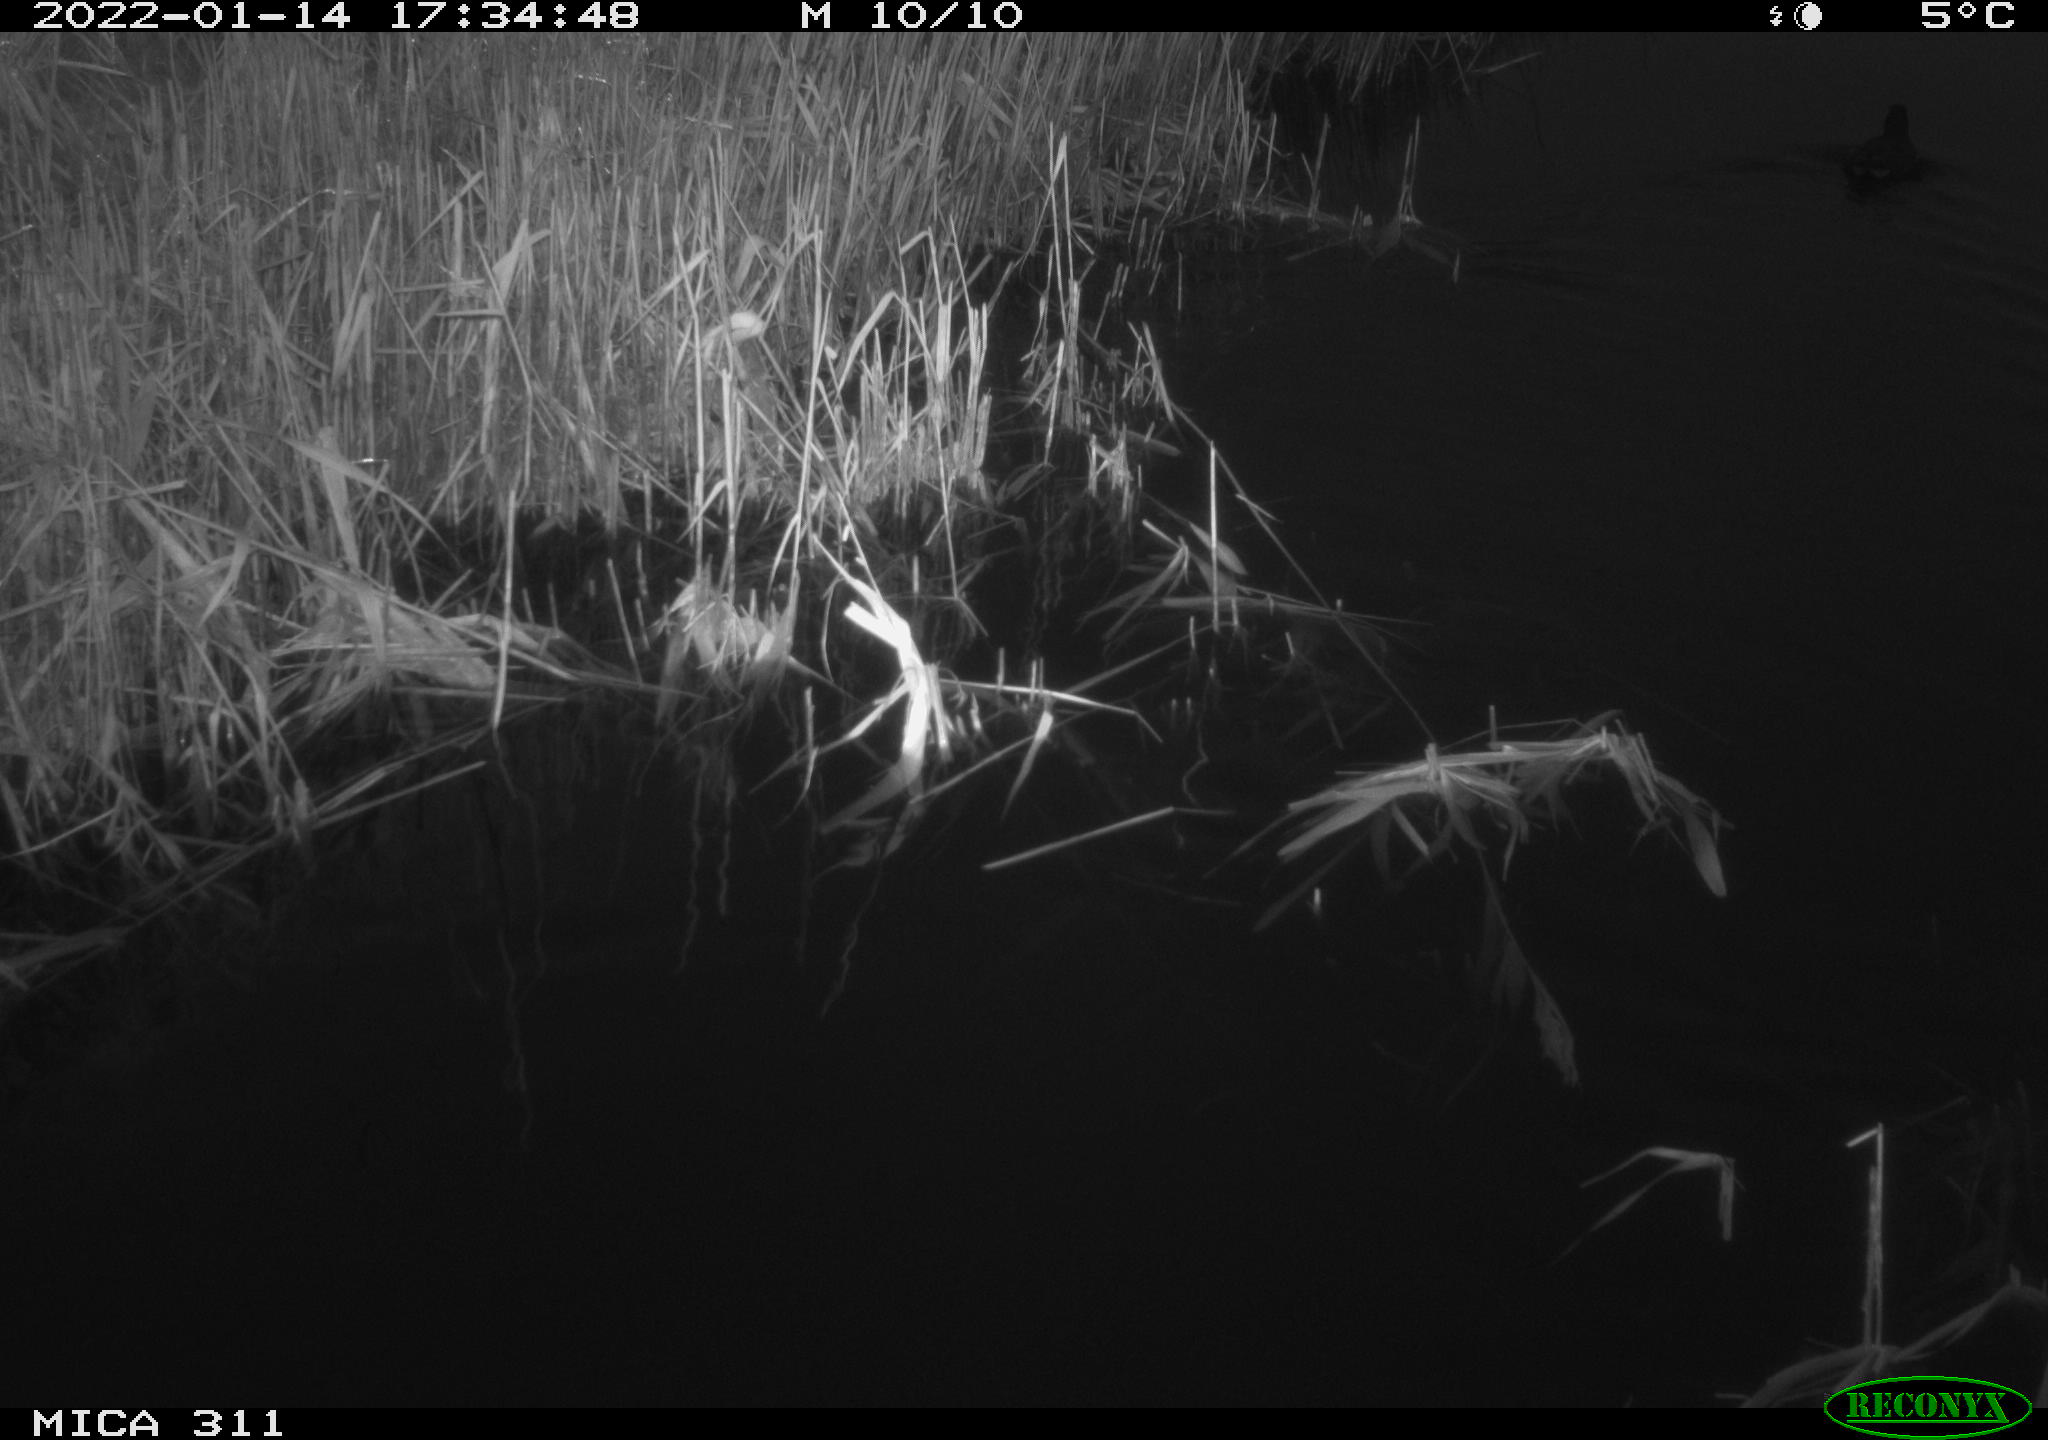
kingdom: Animalia
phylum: Chordata
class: Aves
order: Gruiformes
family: Rallidae
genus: Gallinula
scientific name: Gallinula chloropus
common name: Common moorhen
